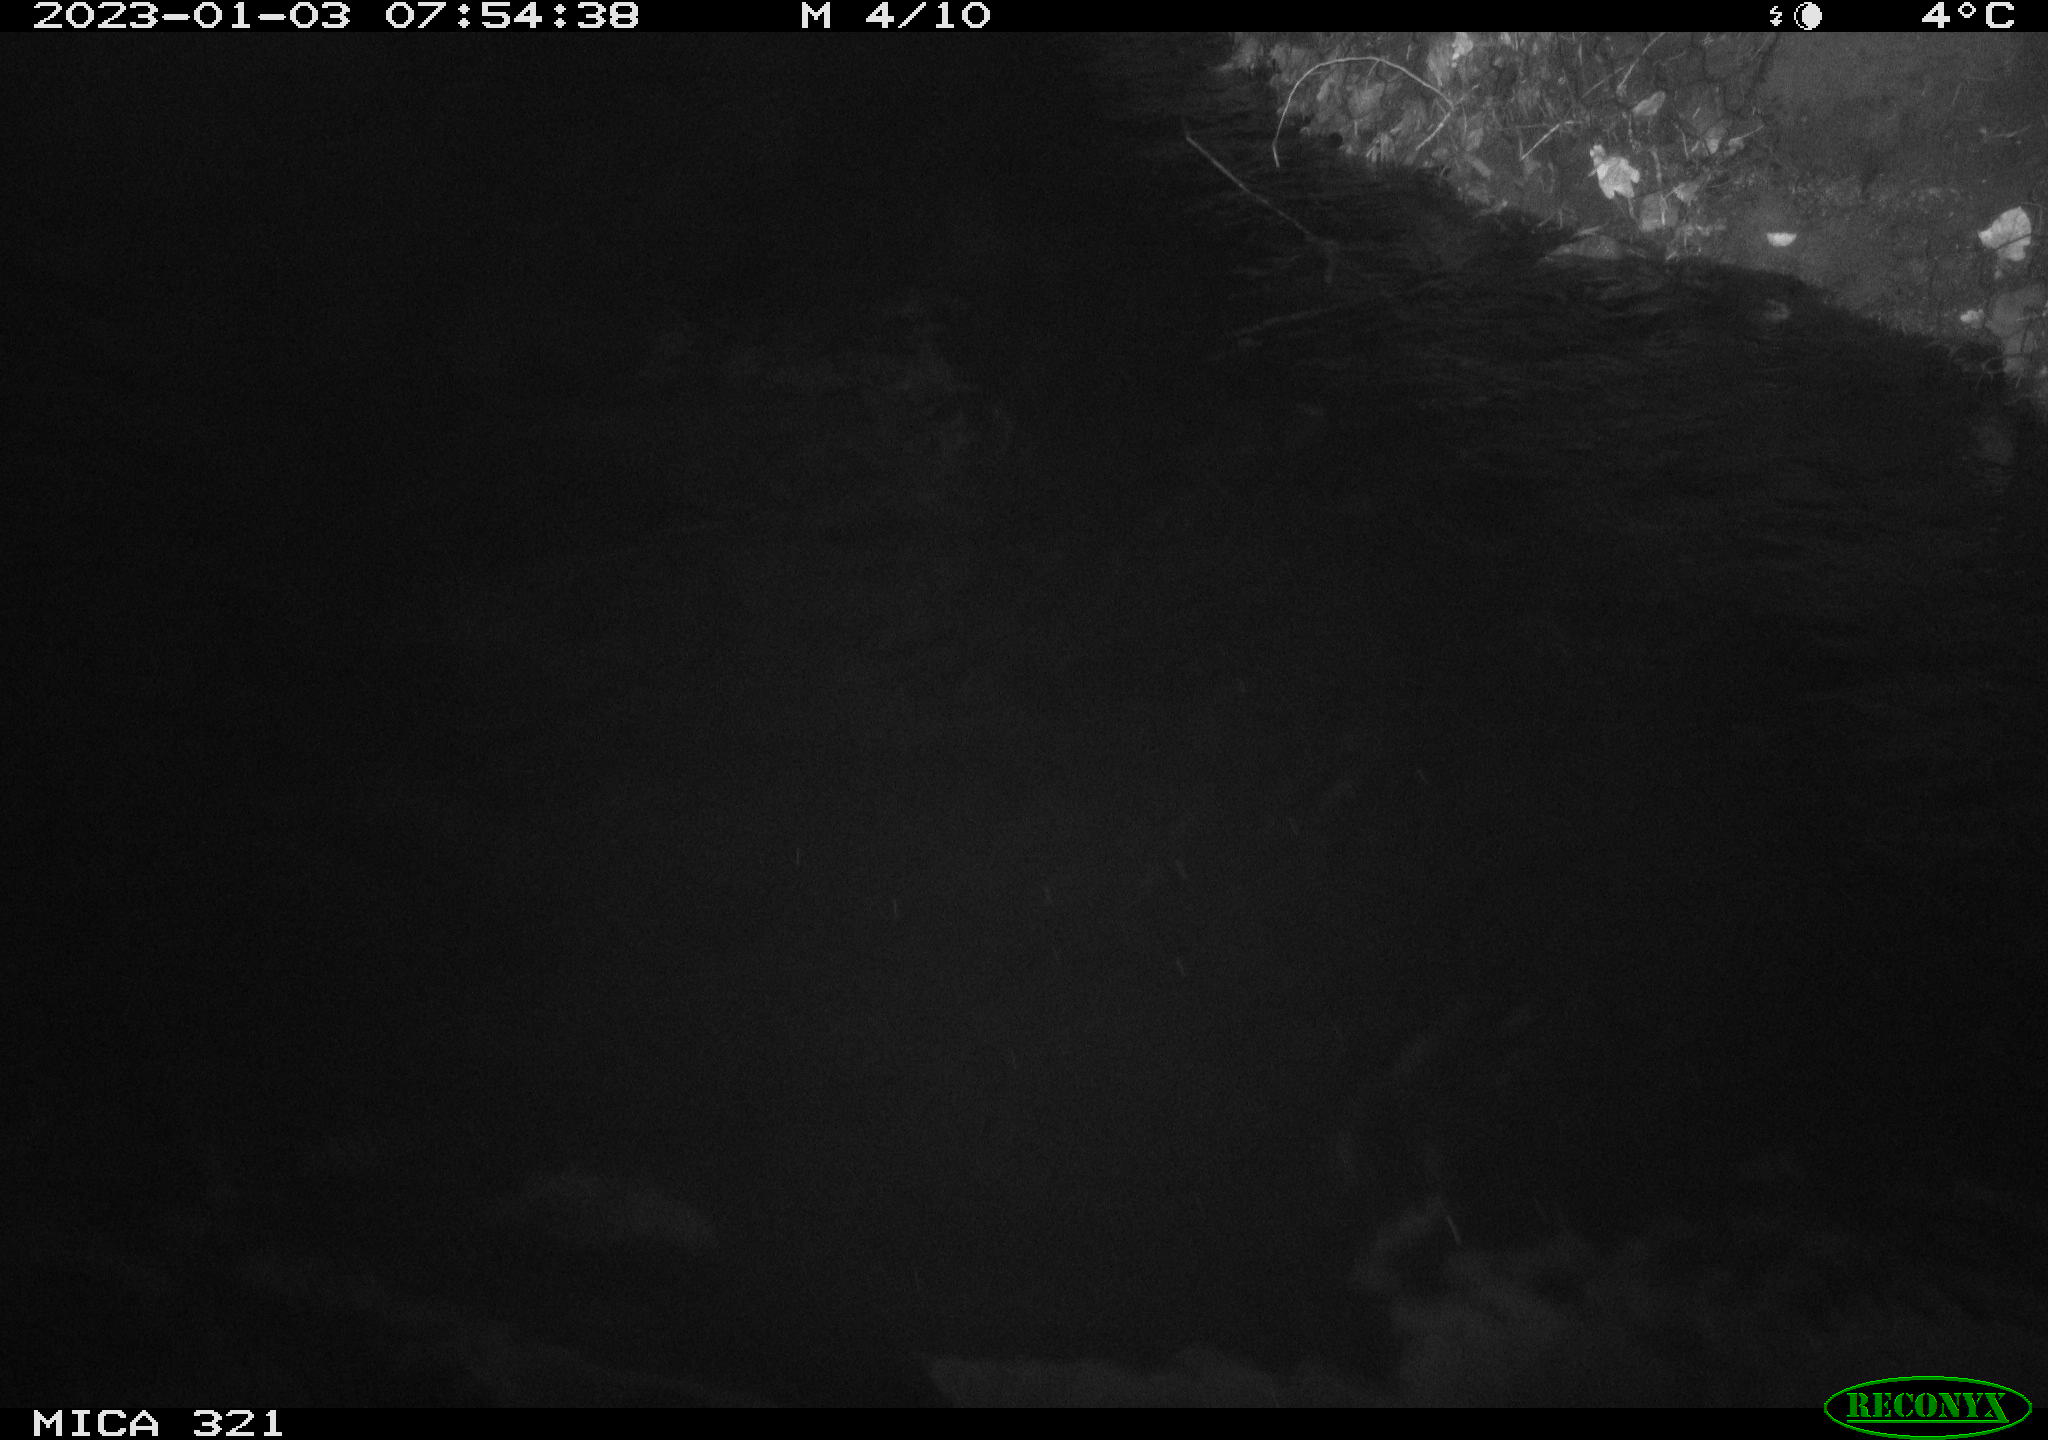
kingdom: Animalia
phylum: Chordata
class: Mammalia
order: Rodentia
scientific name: Rodentia
